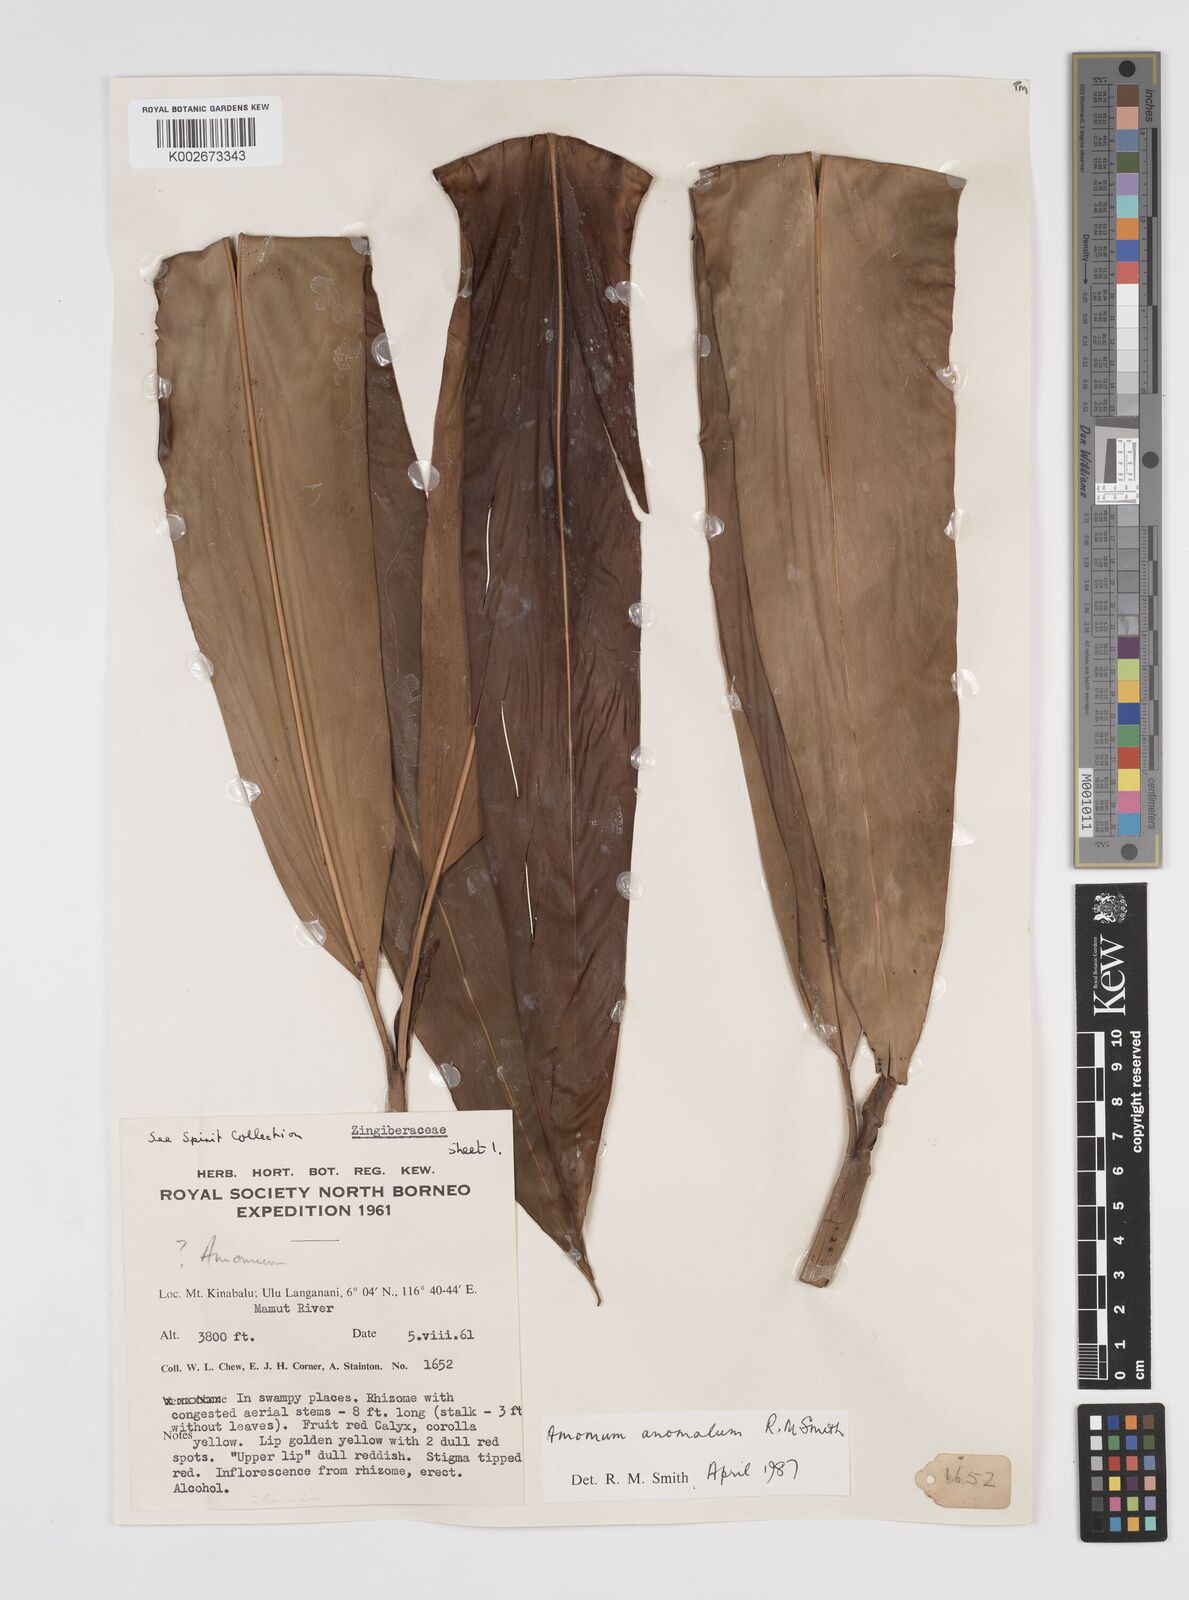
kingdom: Plantae
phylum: Tracheophyta
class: Liliopsida
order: Zingiberales
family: Zingiberaceae
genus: Sulettaria
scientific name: Sulettaria anomala
